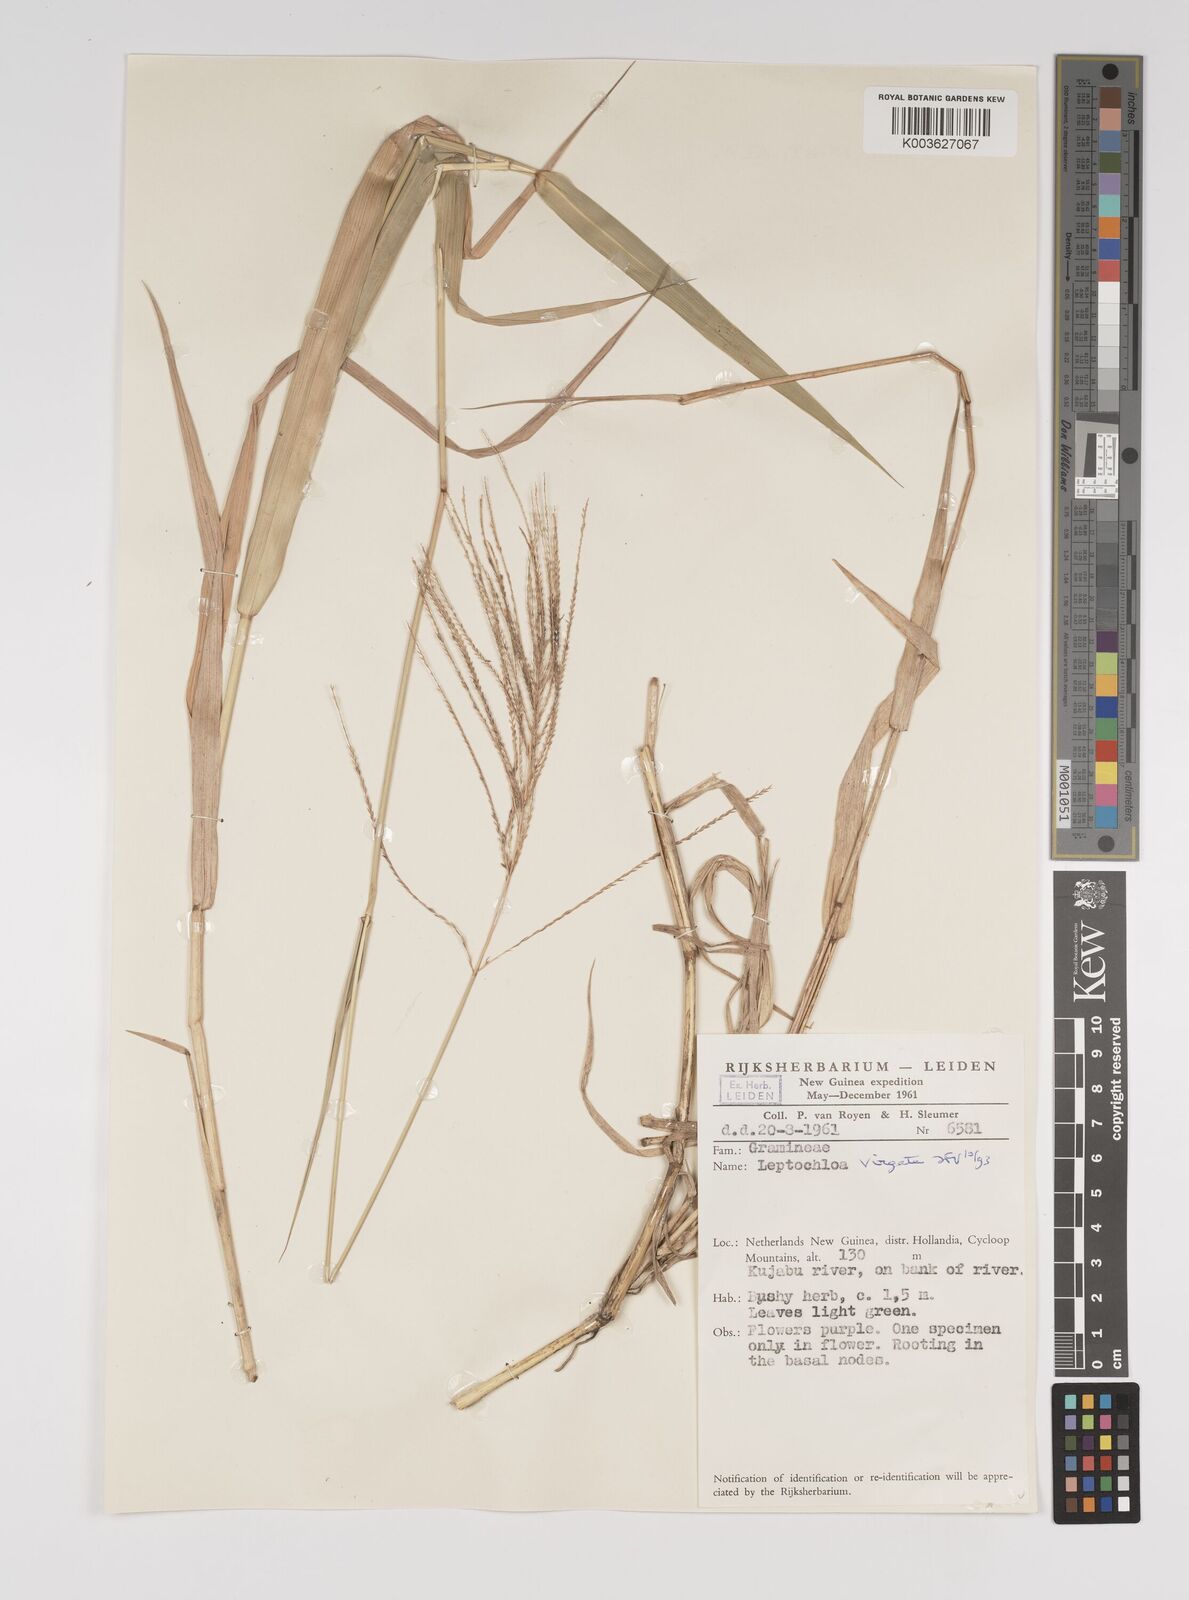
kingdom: Plantae
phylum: Tracheophyta
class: Liliopsida
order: Poales
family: Poaceae
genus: Leptochloa
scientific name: Leptochloa
